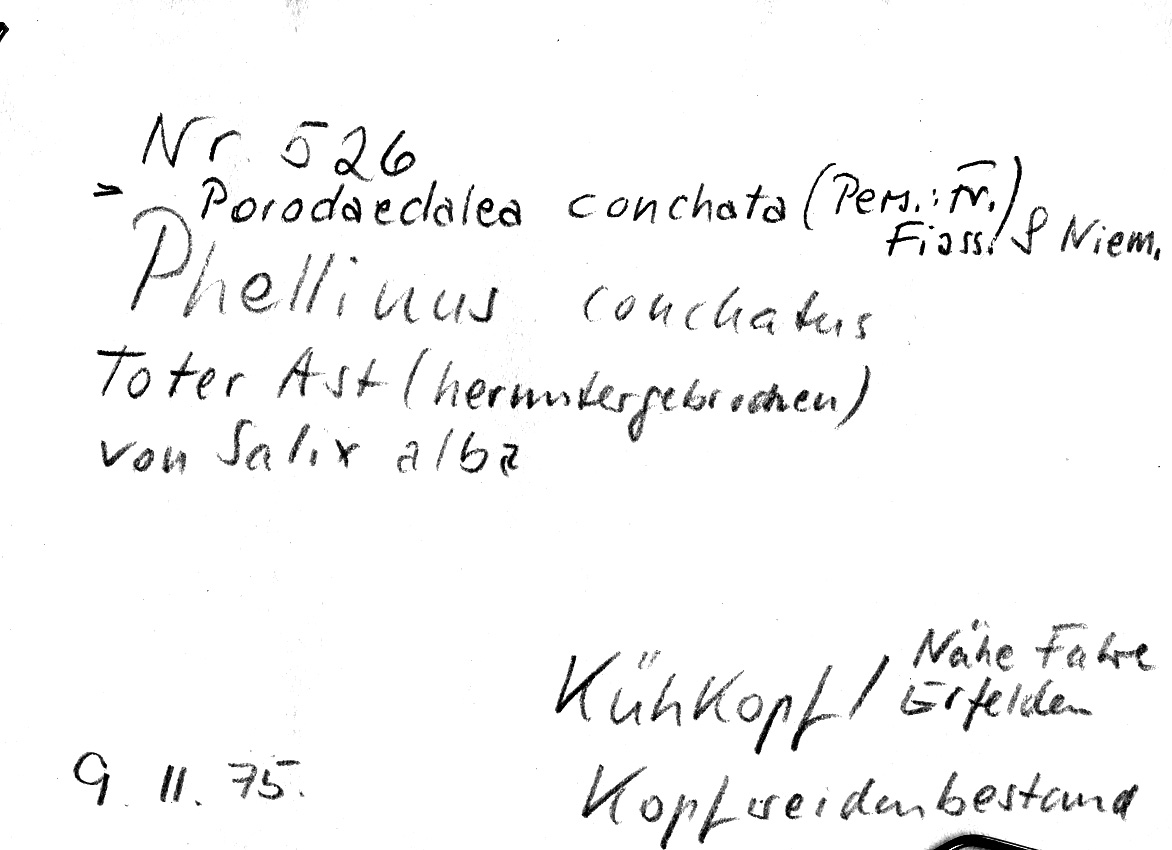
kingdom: Fungi
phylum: Basidiomycota
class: Agaricomycetes
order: Hymenochaetales
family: Hymenochaetaceae
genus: Phellinopsis
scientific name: Phellinopsis conchata
